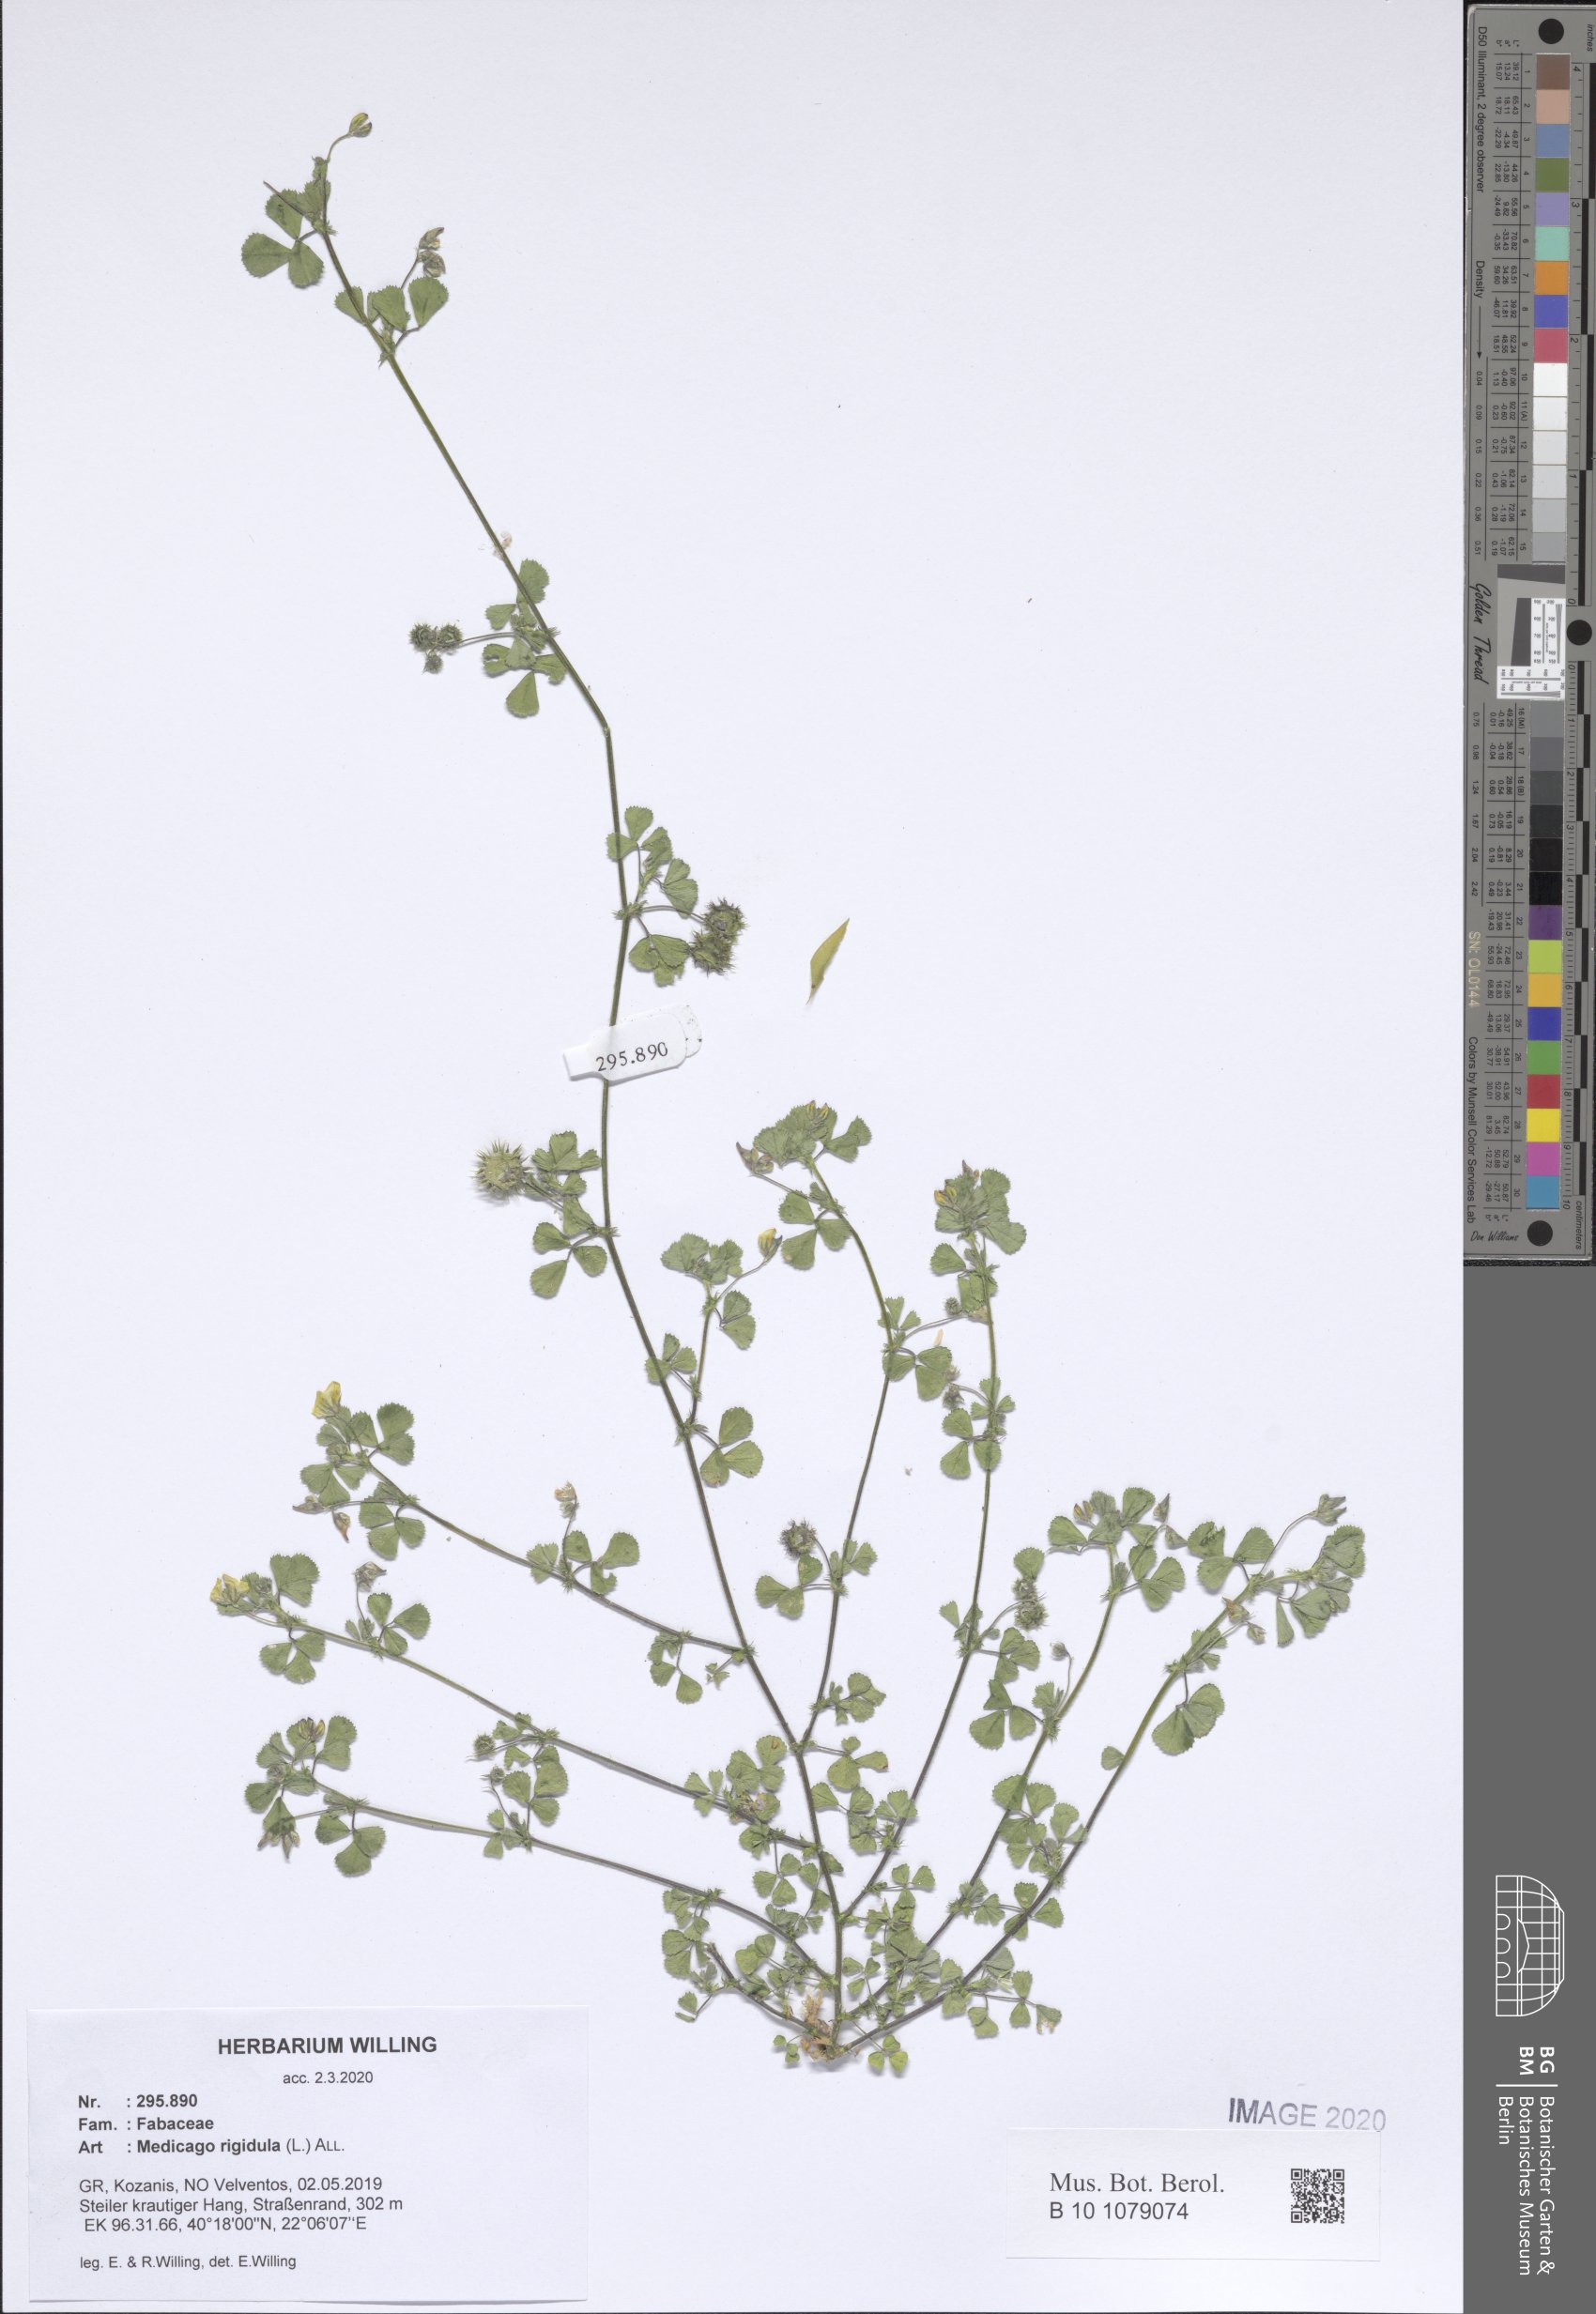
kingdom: Plantae
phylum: Tracheophyta
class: Magnoliopsida
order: Fabales
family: Fabaceae
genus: Medicago
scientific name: Medicago rigidula
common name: Tifton medic
